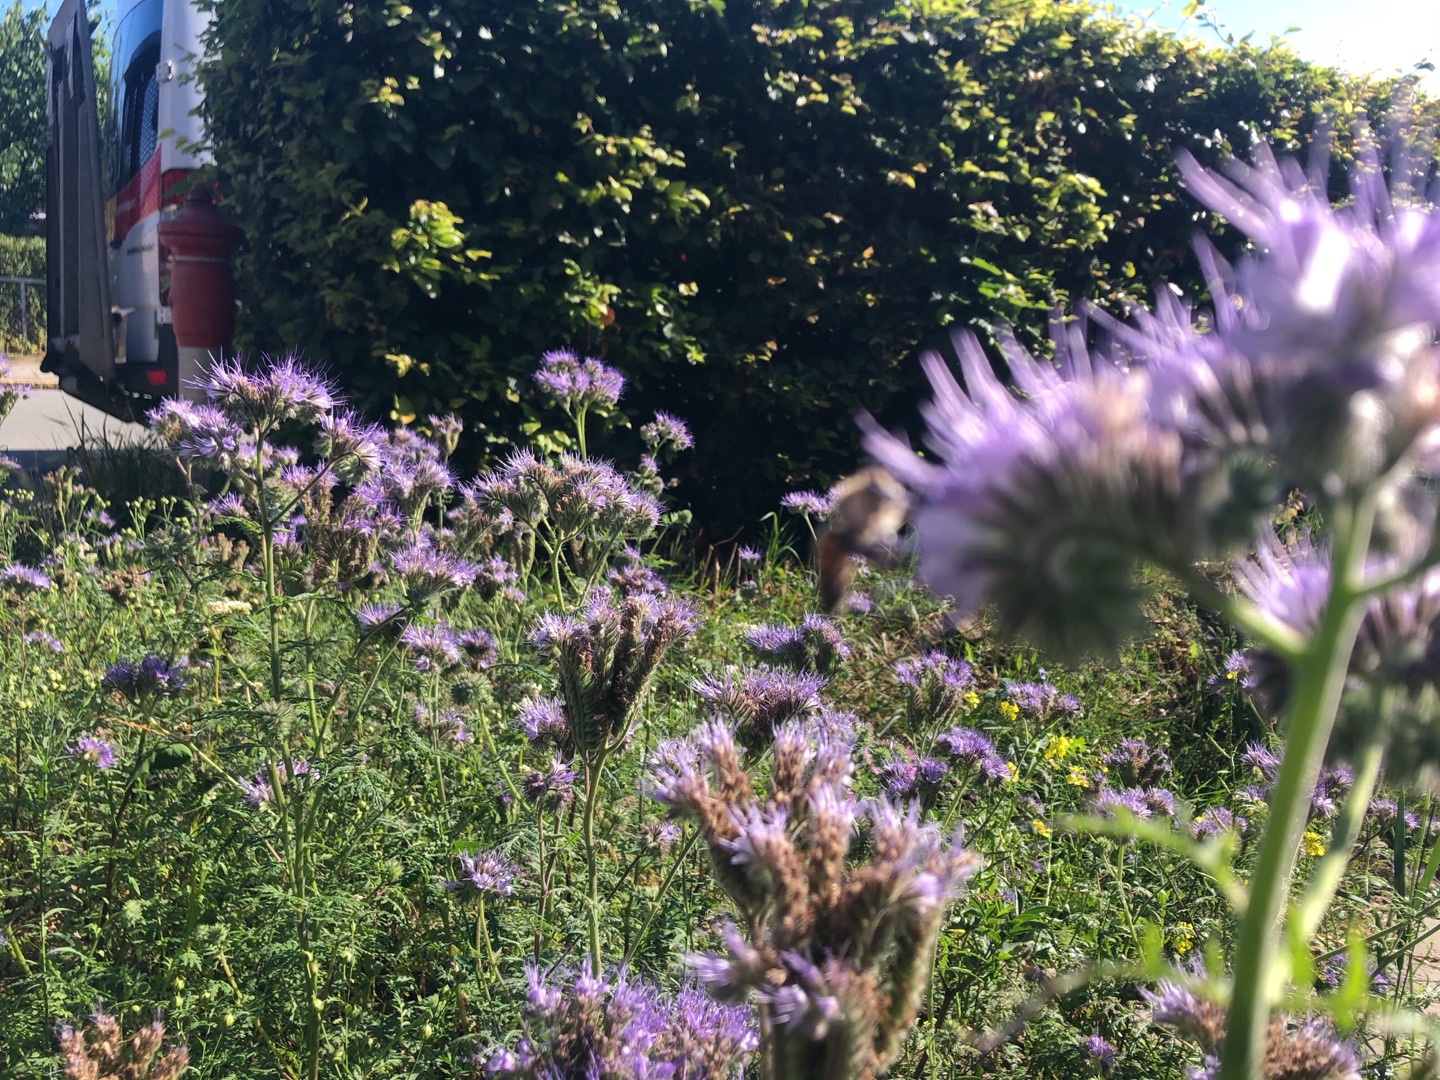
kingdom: Plantae
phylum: Tracheophyta
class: Magnoliopsida
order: Boraginales
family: Hydrophyllaceae
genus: Phacelia
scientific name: Phacelia tanacetifolia
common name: Honningurt
